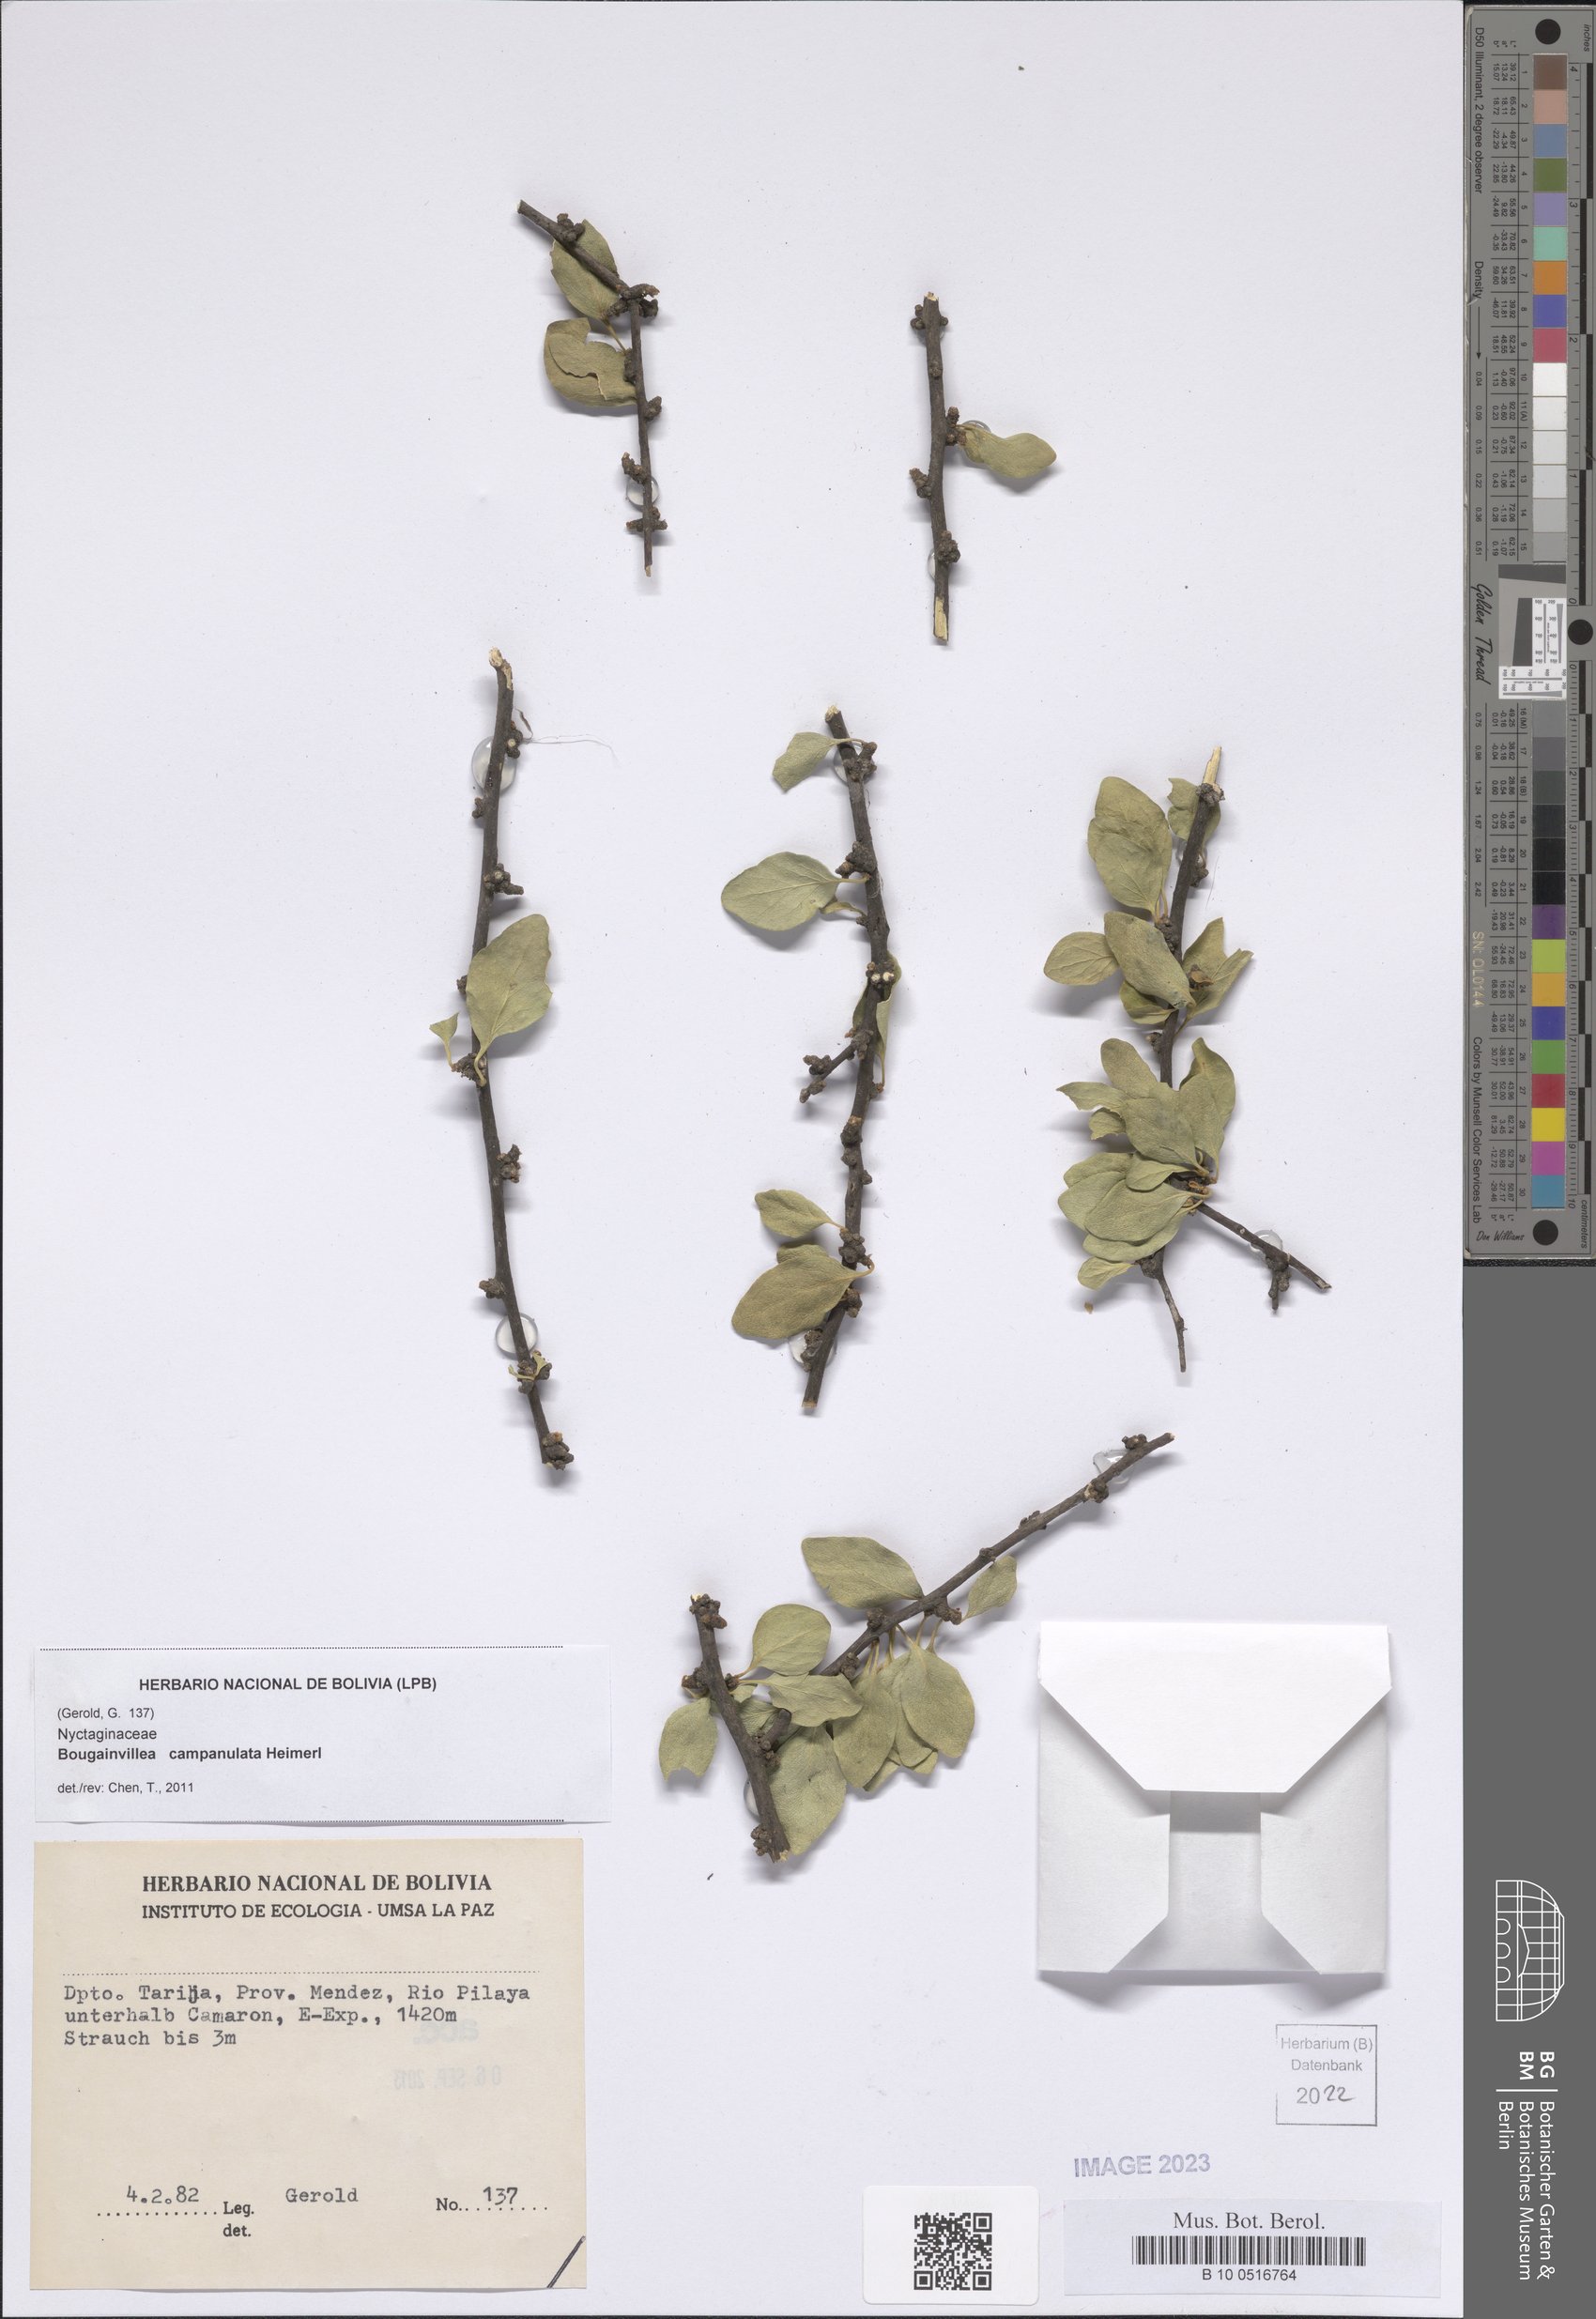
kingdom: Plantae
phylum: Tracheophyta
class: Magnoliopsida
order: Caryophyllales
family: Nyctaginaceae
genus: Bougainvillea
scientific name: Bougainvillea campanulata
